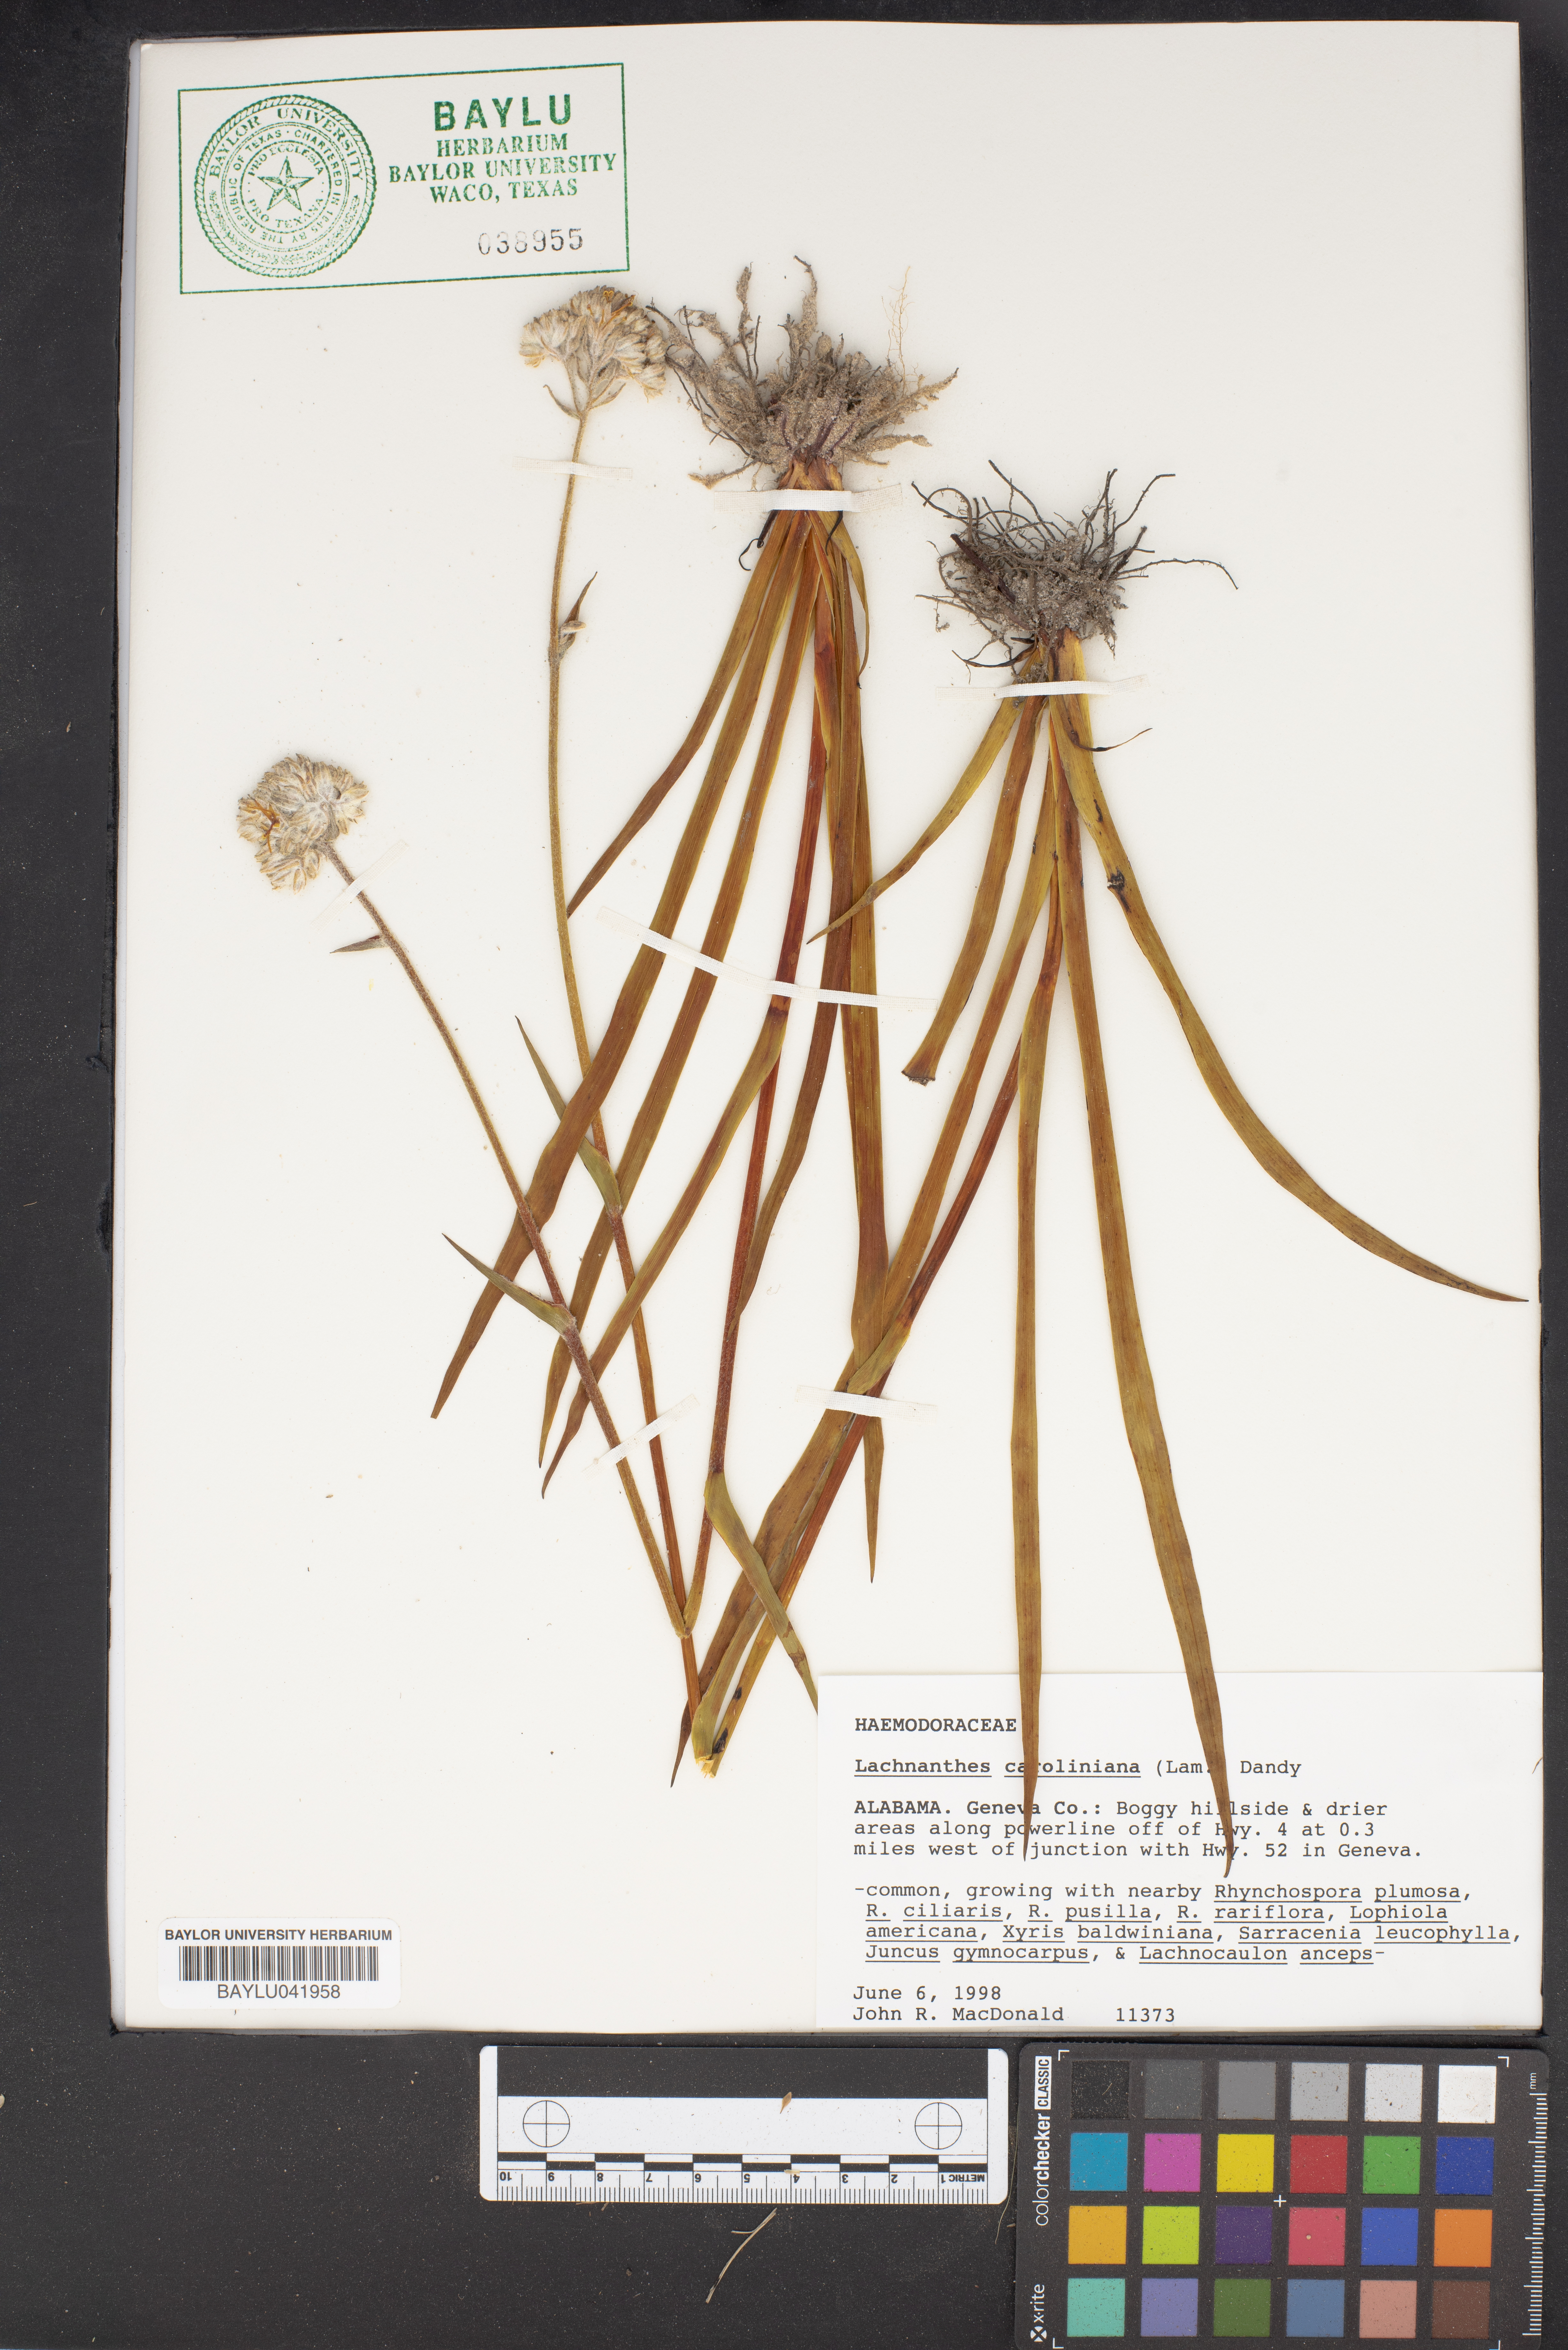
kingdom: Plantae
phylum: Tracheophyta
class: Liliopsida
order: Commelinales
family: Haemodoraceae
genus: Lachnanthes
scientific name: Lachnanthes caroliniana
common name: Carolina redroot
